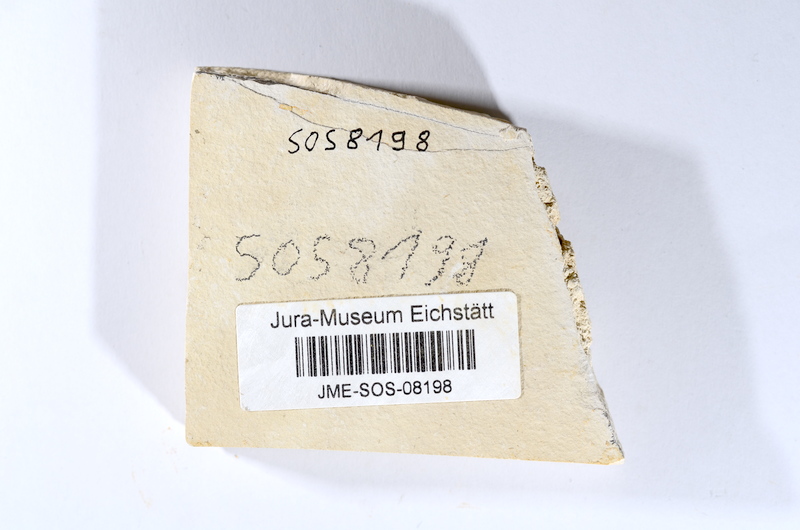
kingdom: Animalia
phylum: Chordata
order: Salmoniformes
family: Orthogonikleithridae
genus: Leptolepides
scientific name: Leptolepides sprattiformis
